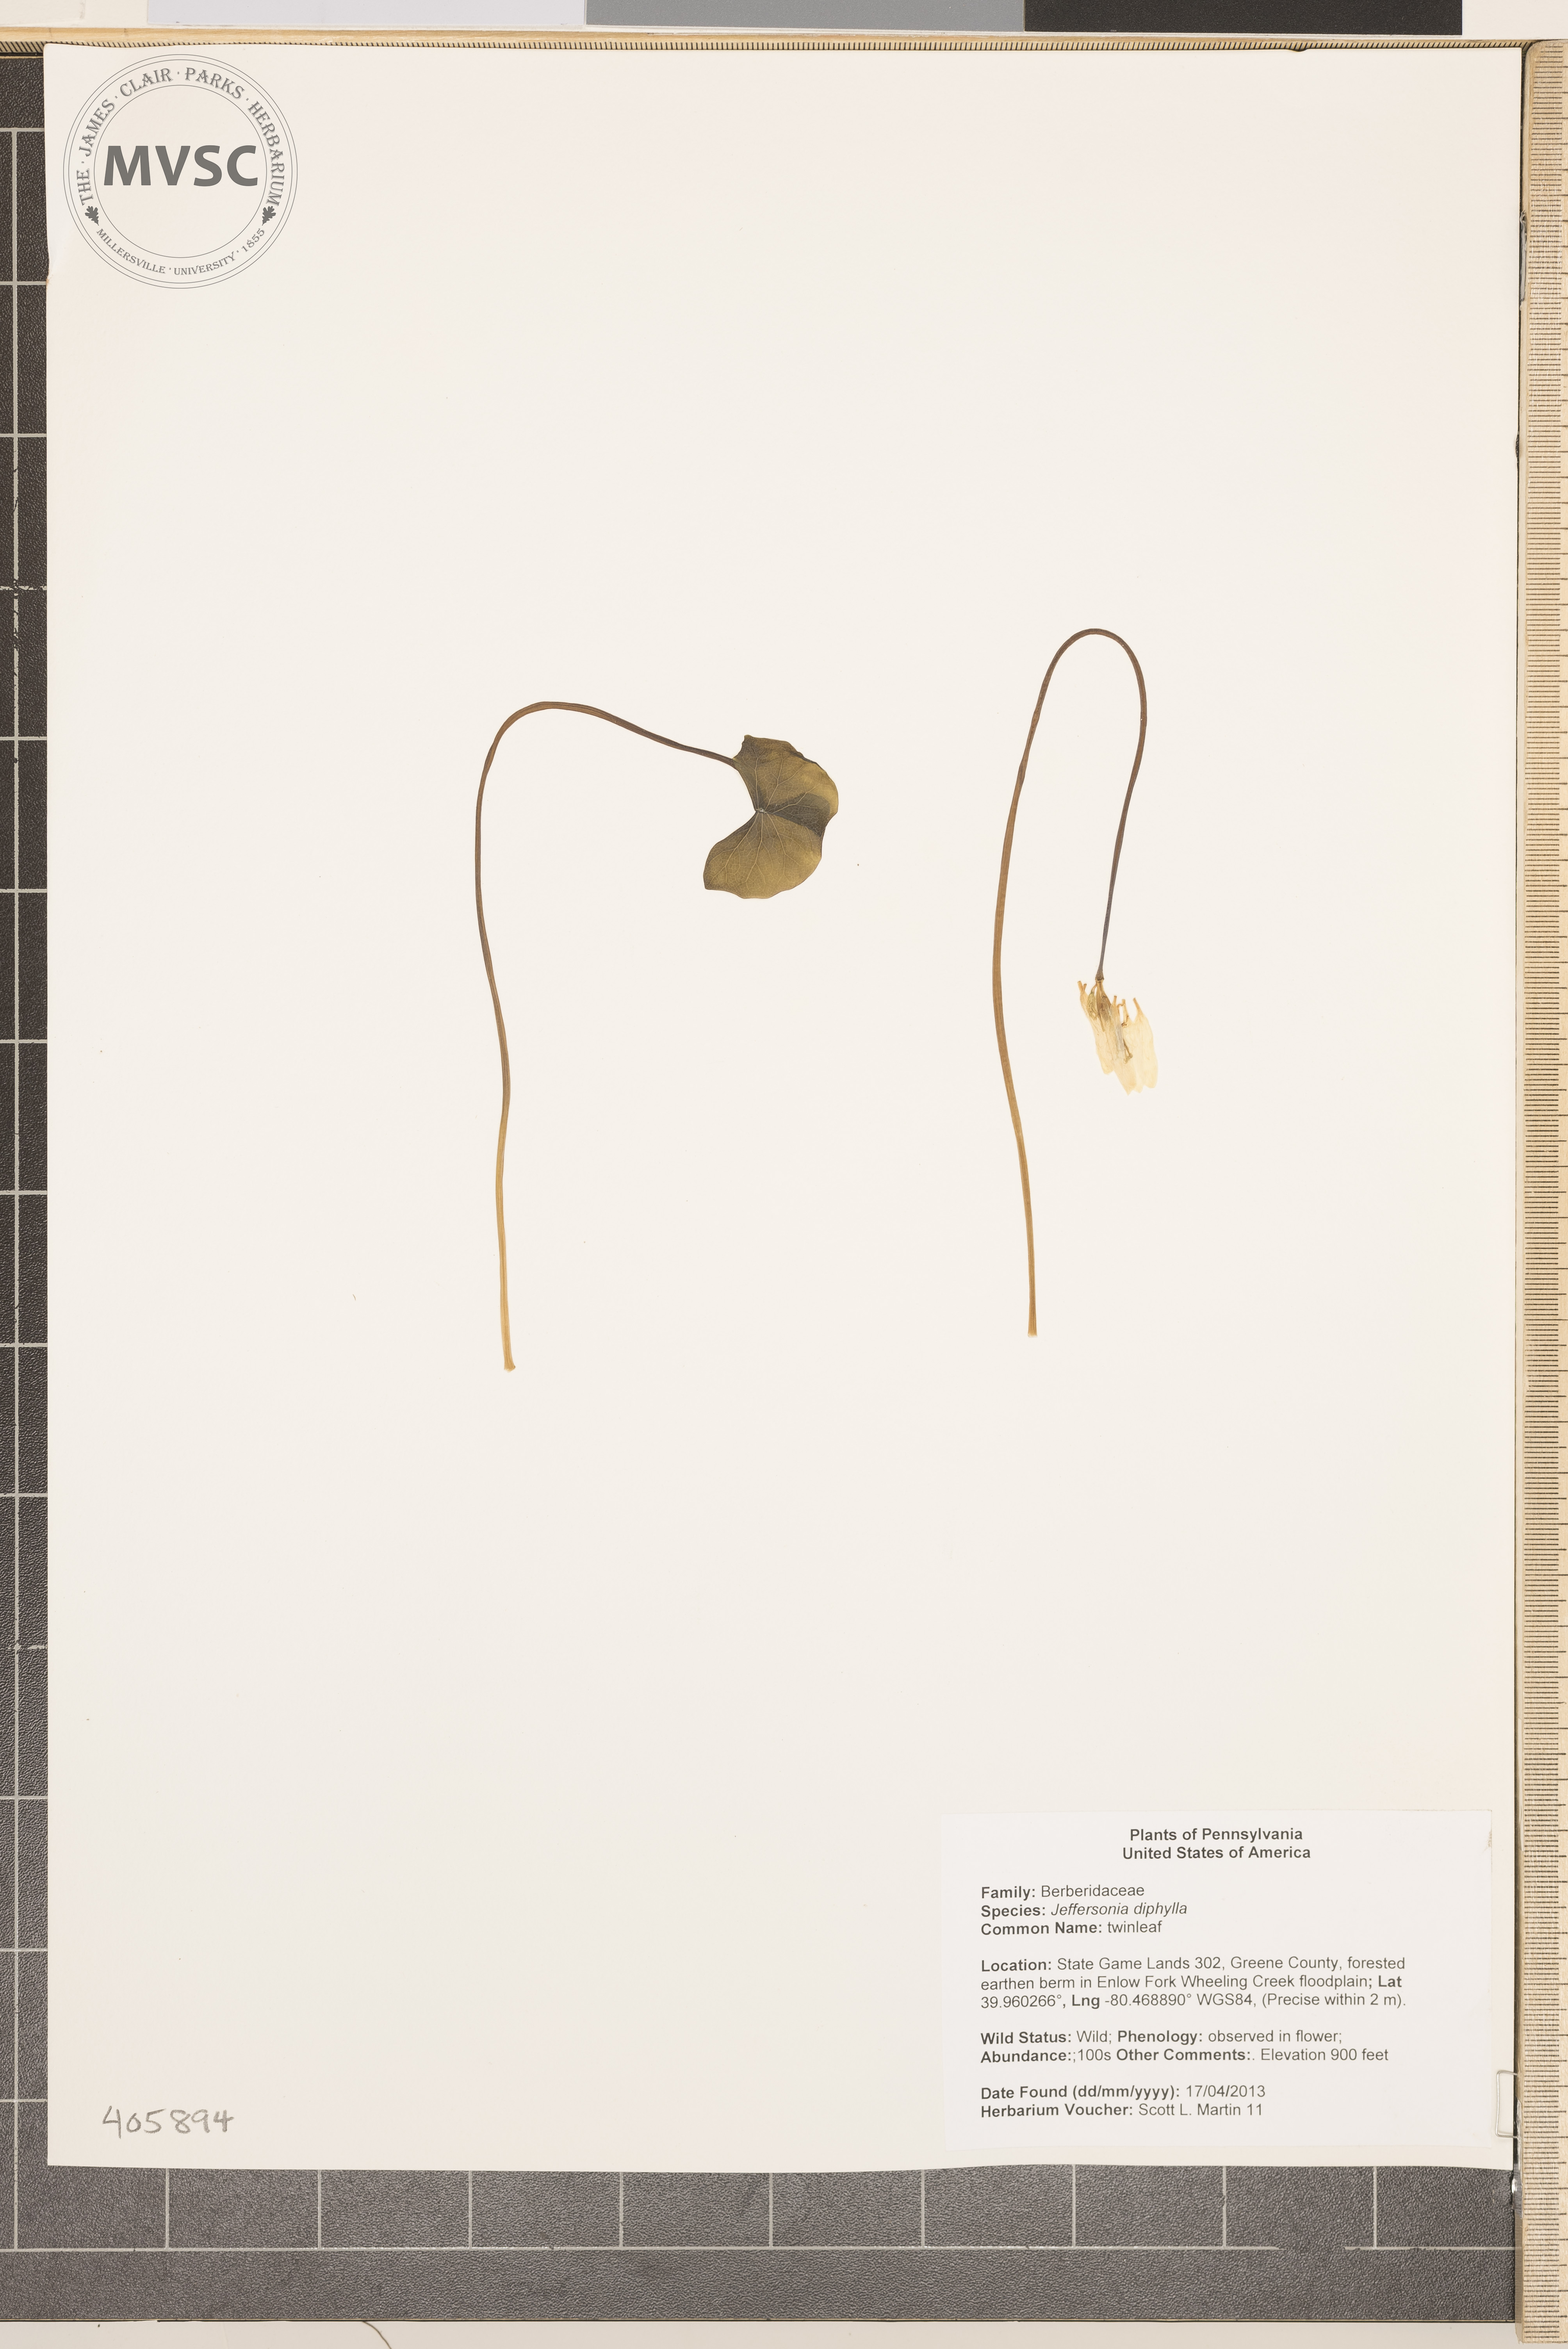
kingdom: Plantae
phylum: Tracheophyta
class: Magnoliopsida
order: Ranunculales
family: Berberidaceae
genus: Jeffersonia
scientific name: Jeffersonia diphylla
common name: twinleaf
